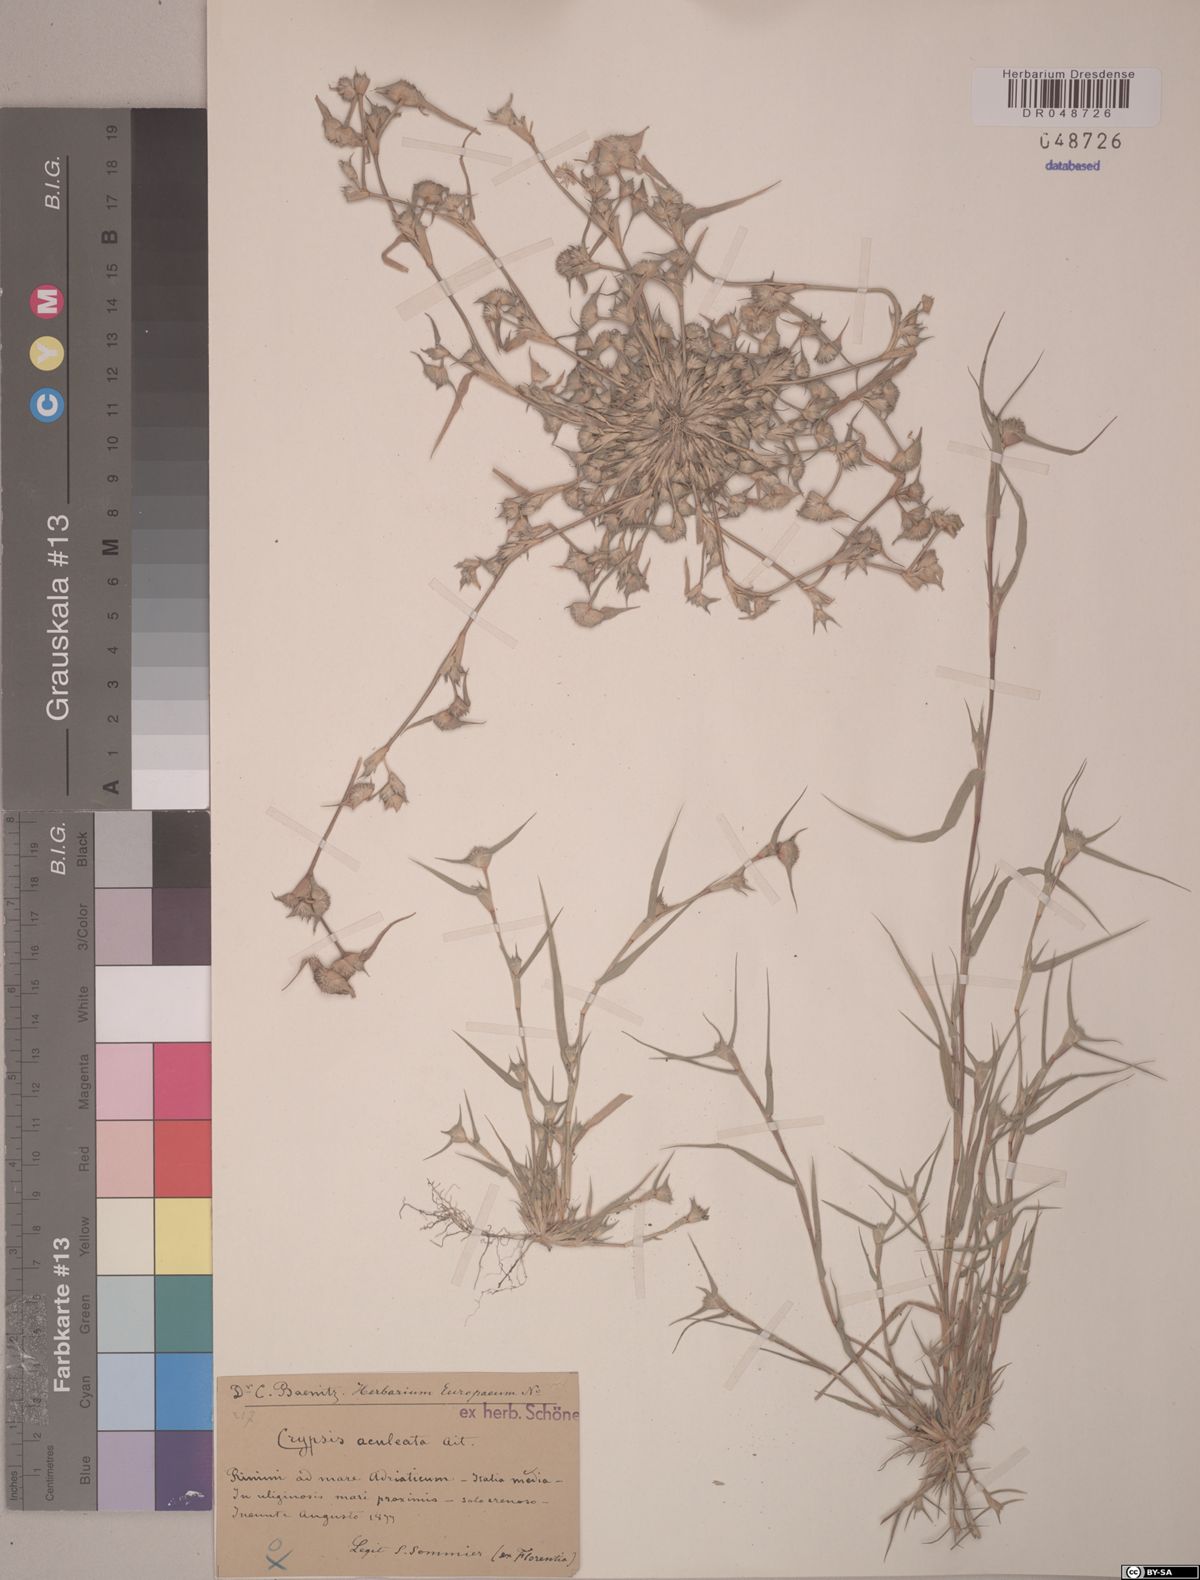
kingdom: Plantae
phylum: Tracheophyta
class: Liliopsida
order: Poales
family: Poaceae
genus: Sporobolus
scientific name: Sporobolus aculeatus
